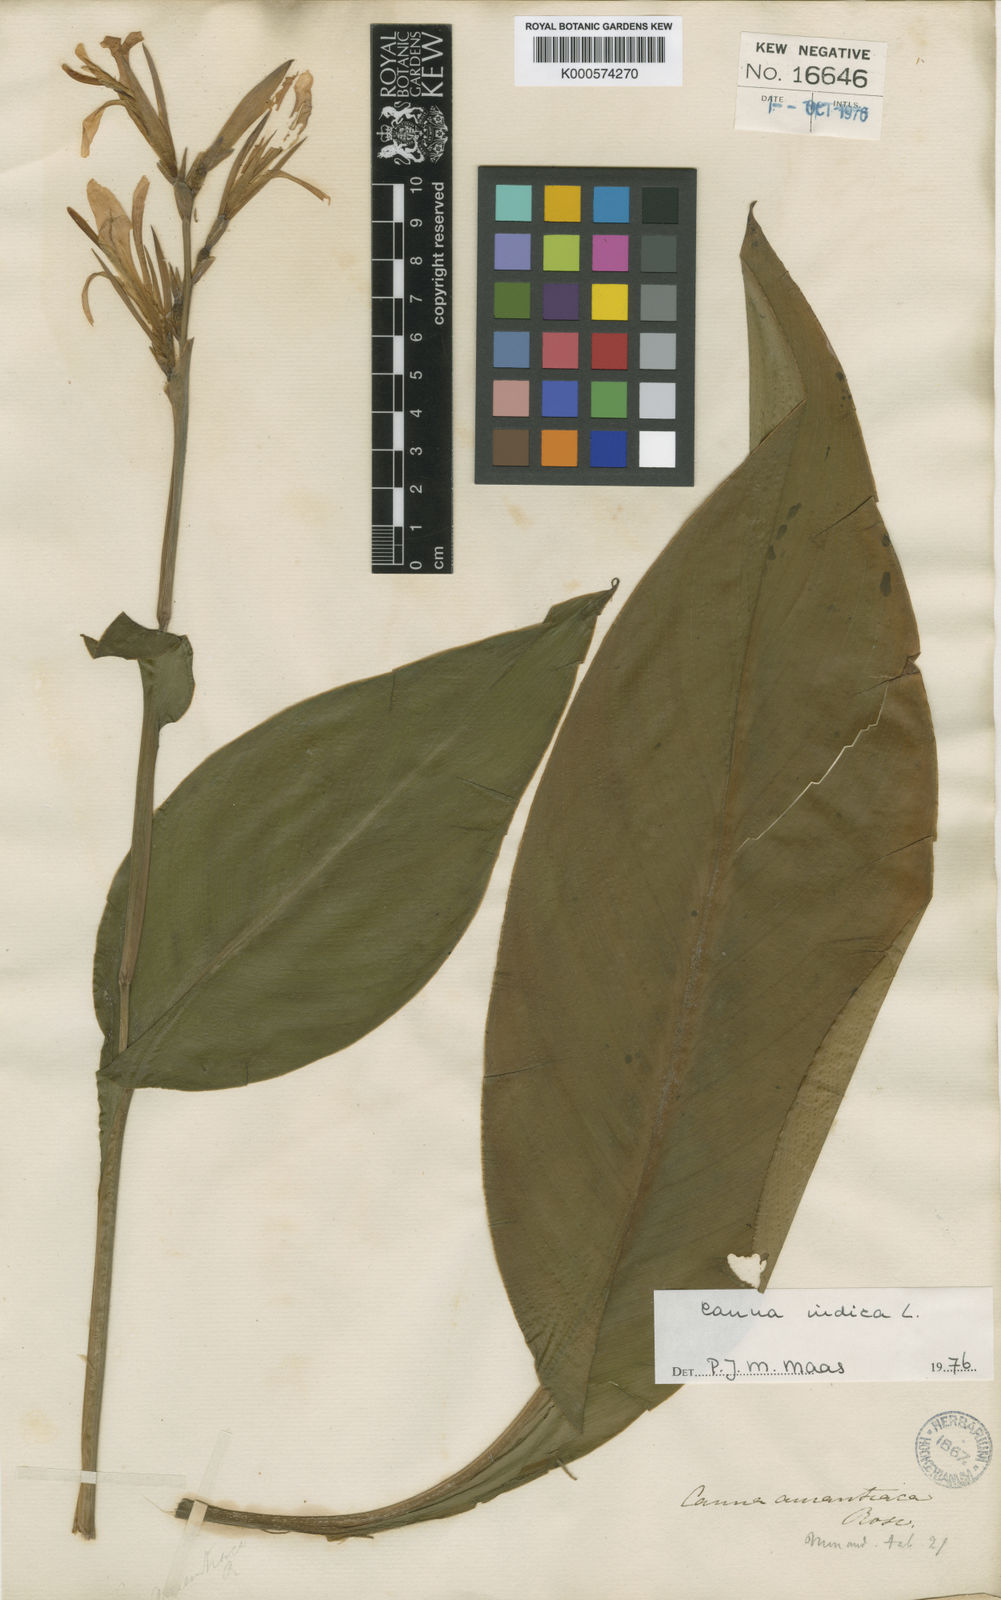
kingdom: Plantae
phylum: Tracheophyta
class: Liliopsida
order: Zingiberales
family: Cannaceae
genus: Canna
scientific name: Canna indica
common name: Indian shot
